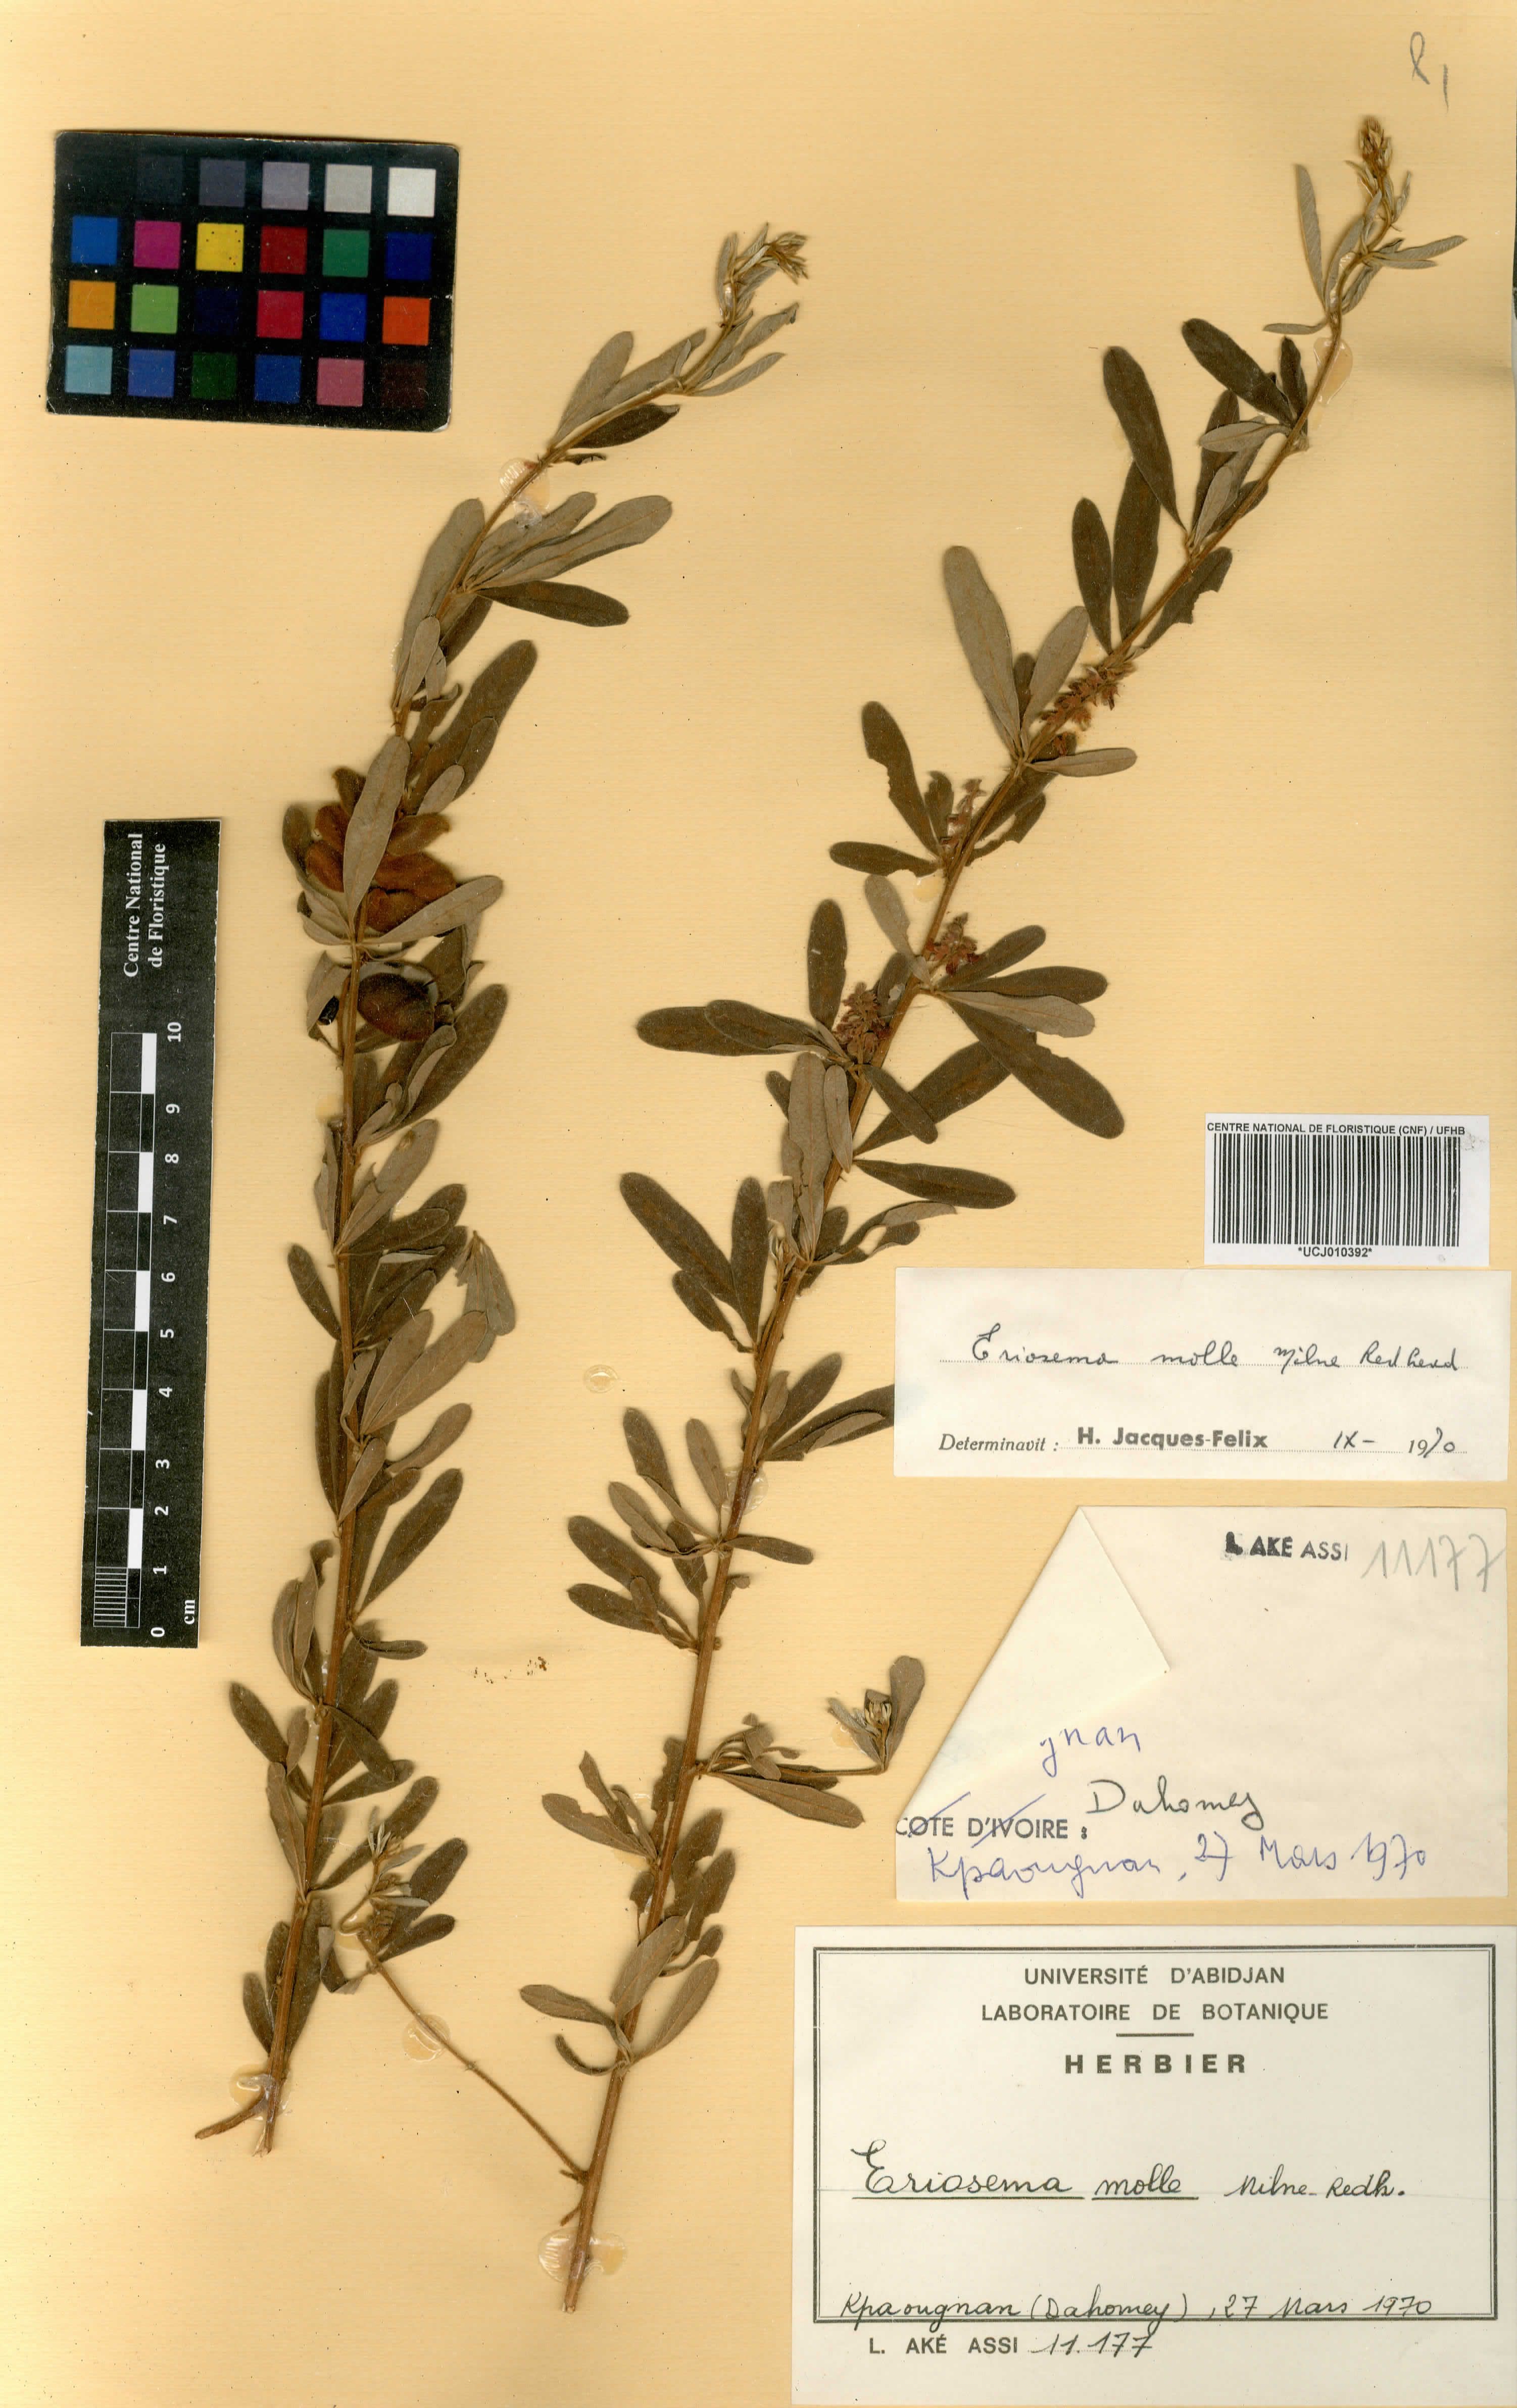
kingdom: Plantae
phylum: Tracheophyta
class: Magnoliopsida
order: Fabales
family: Fabaceae
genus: Eriosema
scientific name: Eriosema molle
